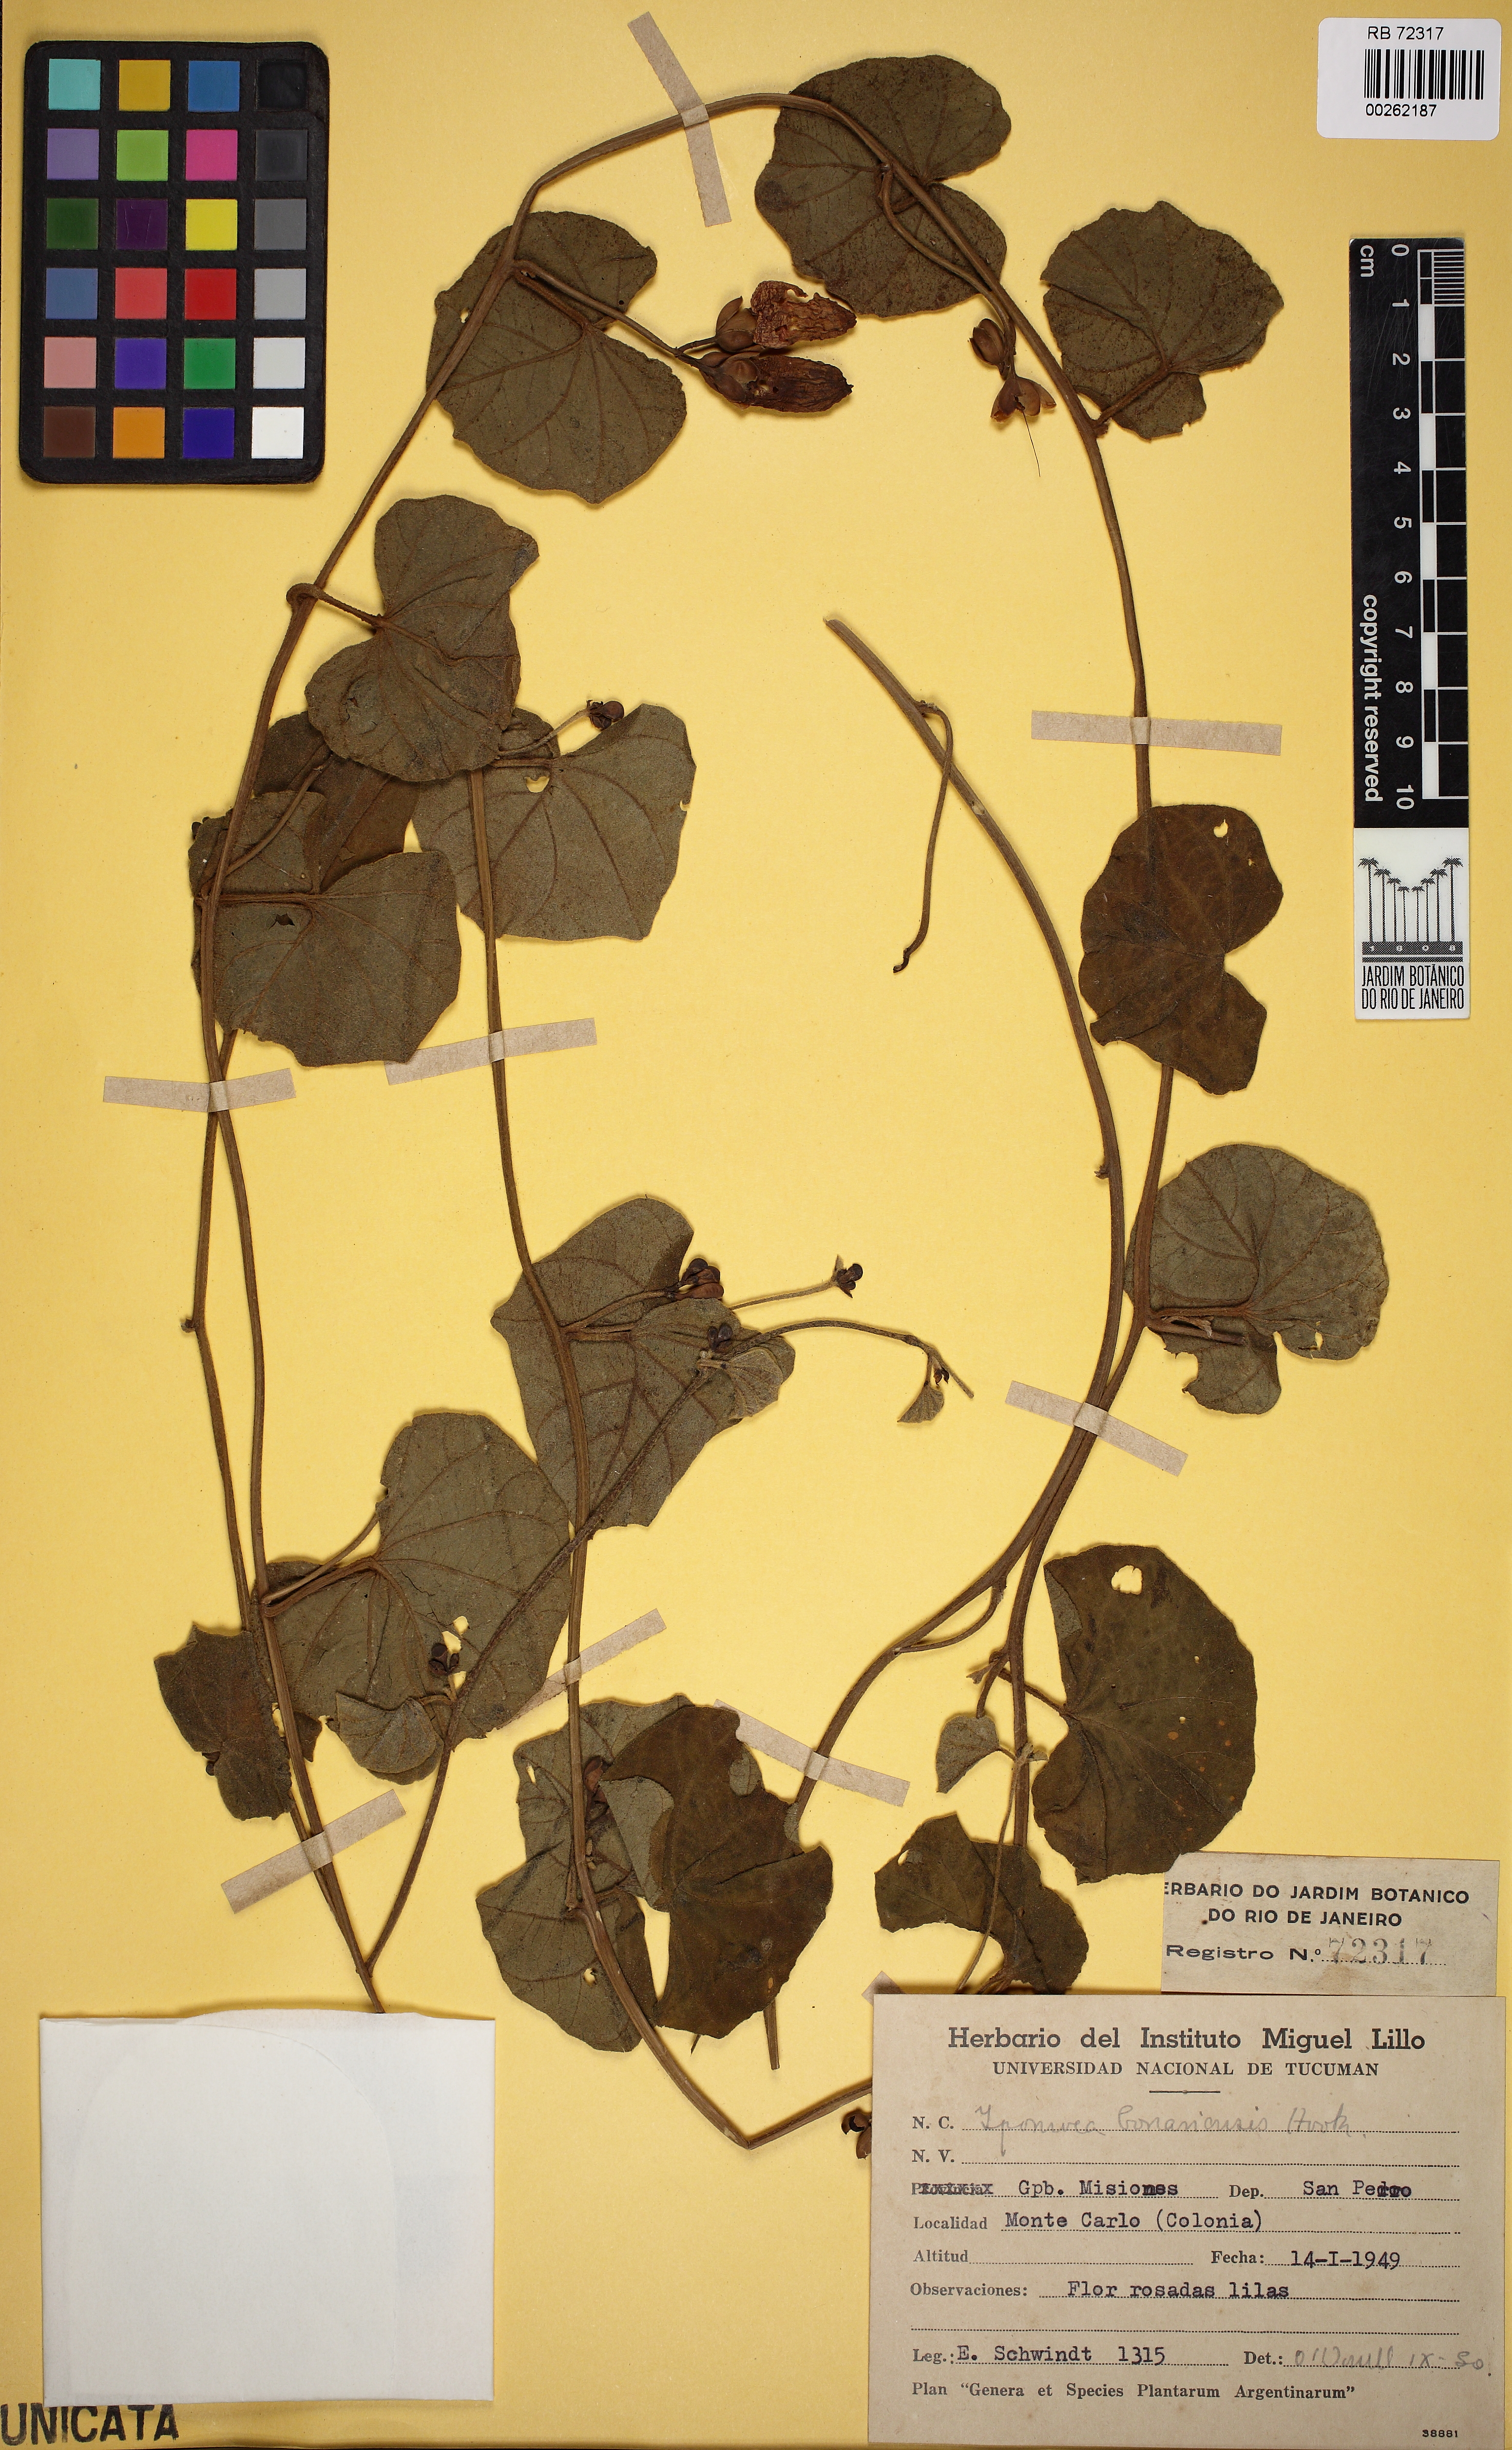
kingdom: Plantae
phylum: Tracheophyta
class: Magnoliopsida
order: Solanales
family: Convolvulaceae
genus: Ipomoea
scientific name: Ipomoea bonariensis
